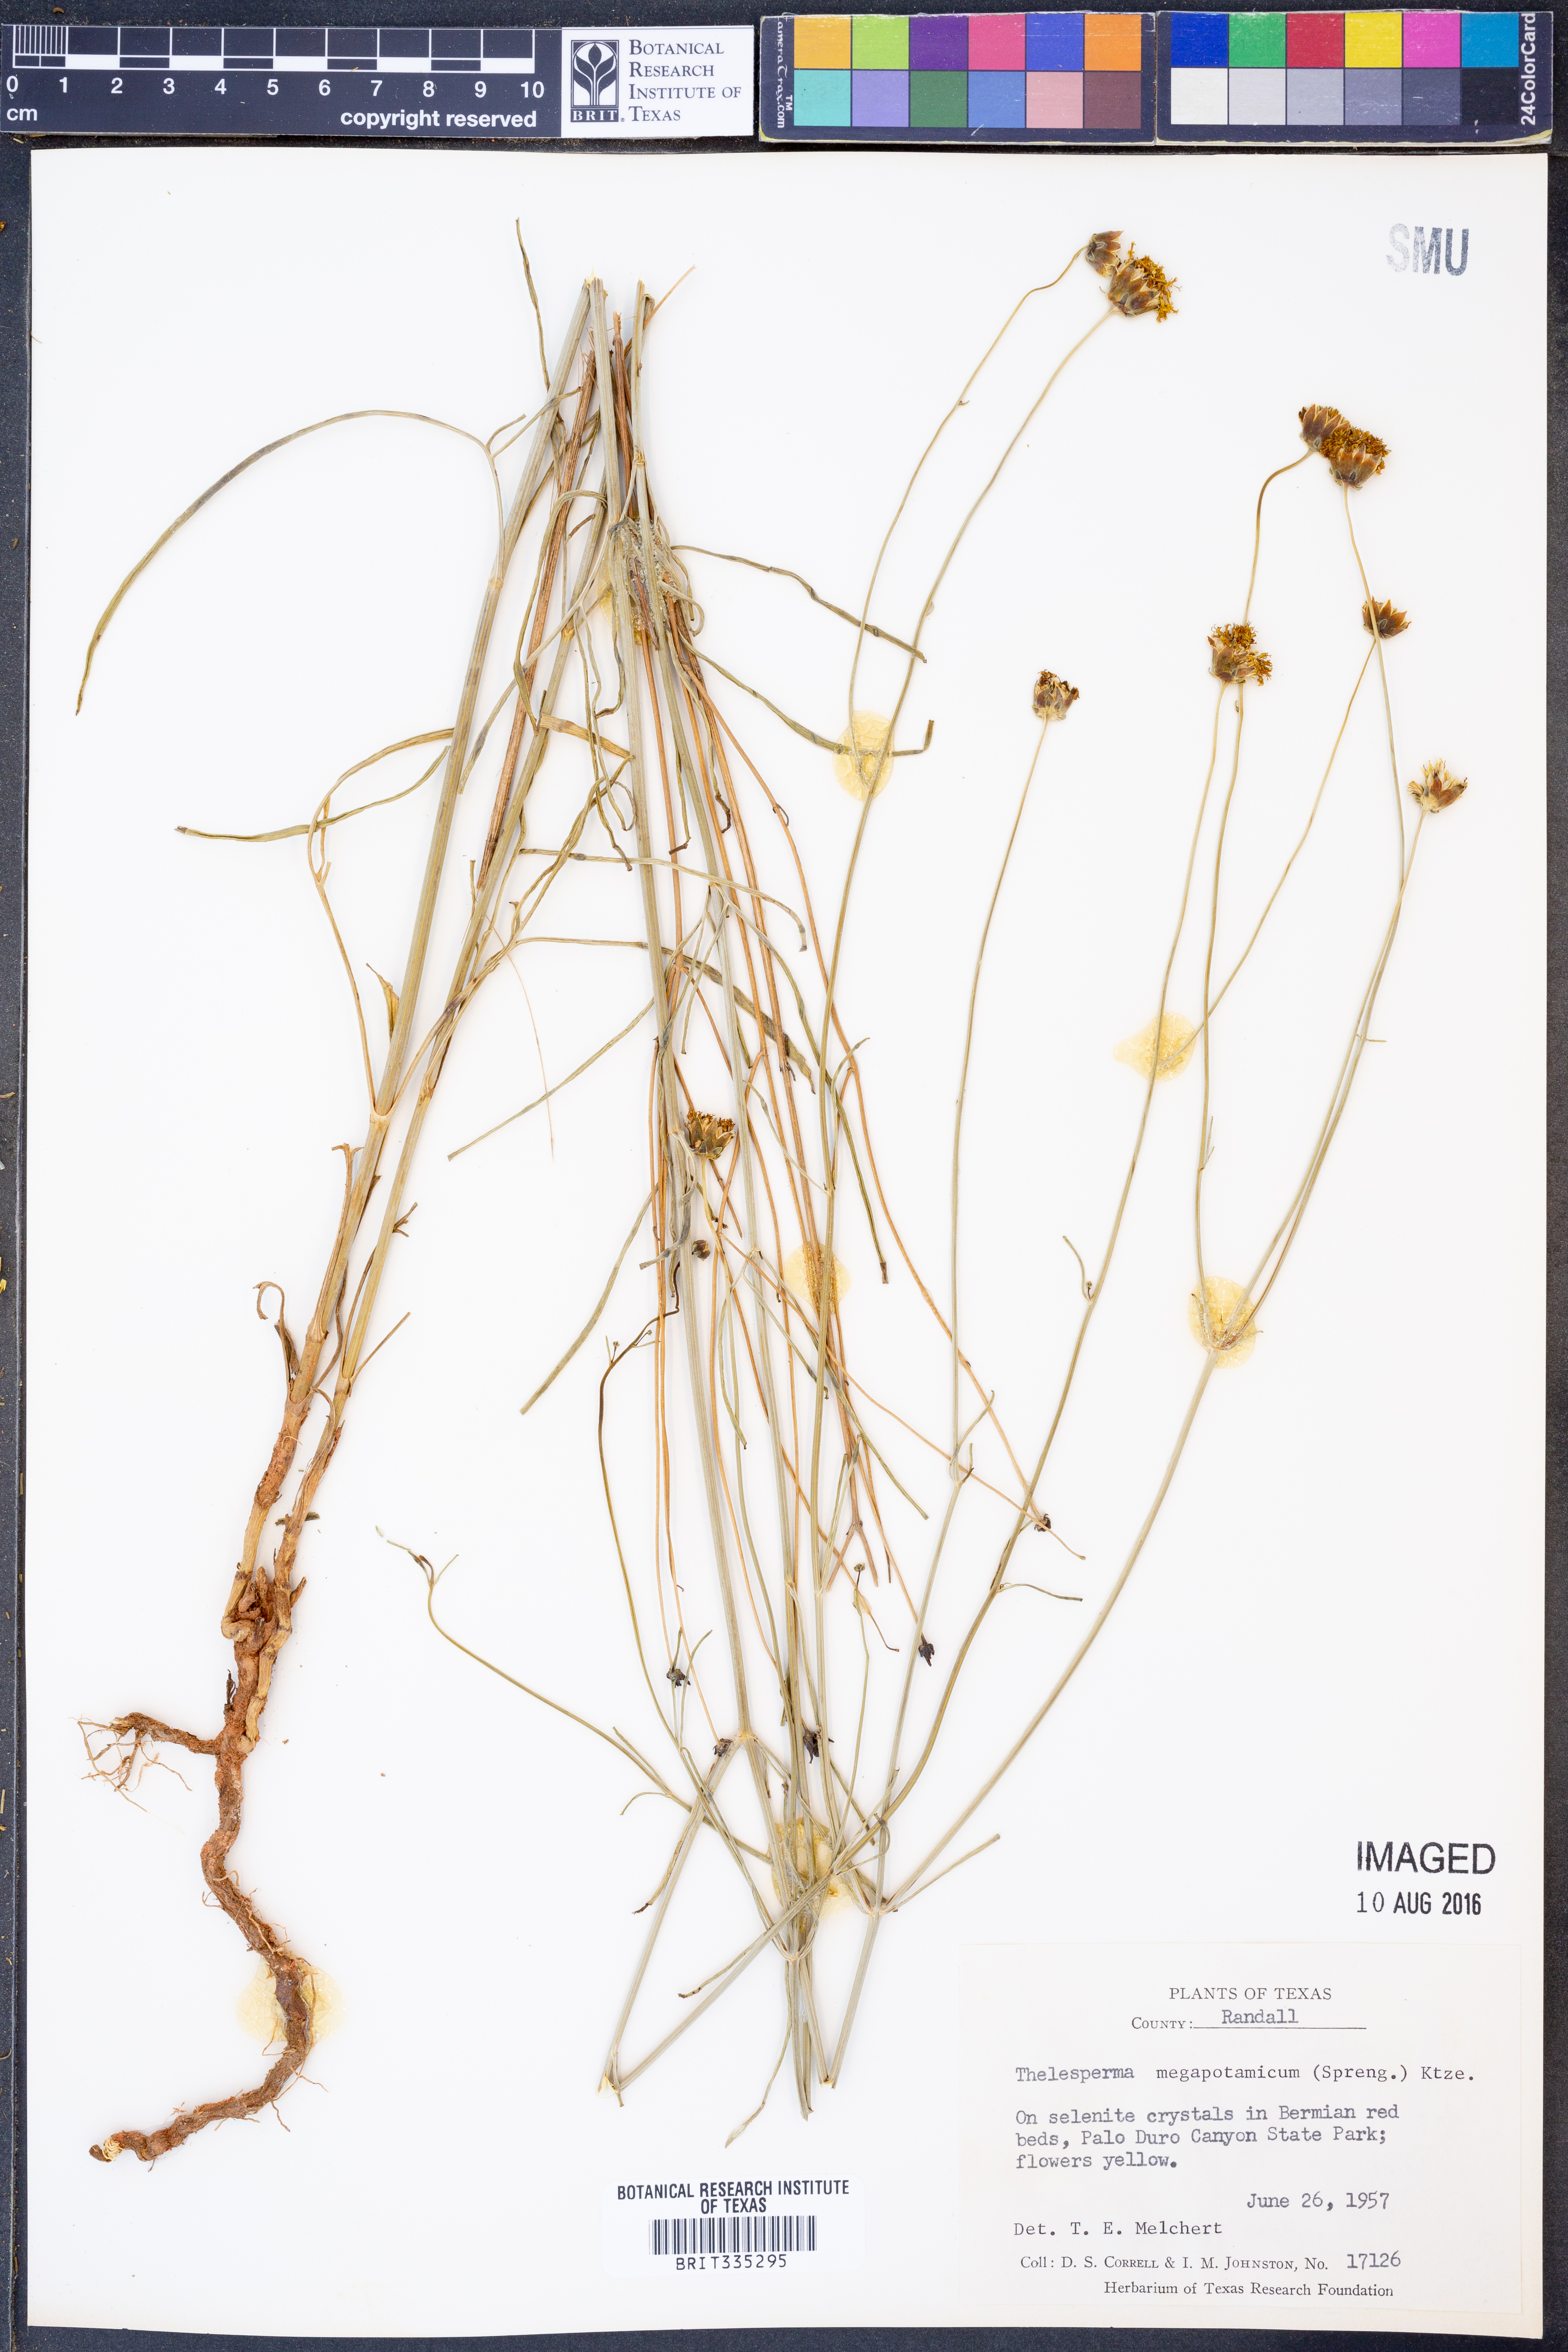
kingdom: Plantae
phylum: Tracheophyta
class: Magnoliopsida
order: Asterales
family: Asteraceae
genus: Thelesperma
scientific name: Thelesperma megapotamicum
